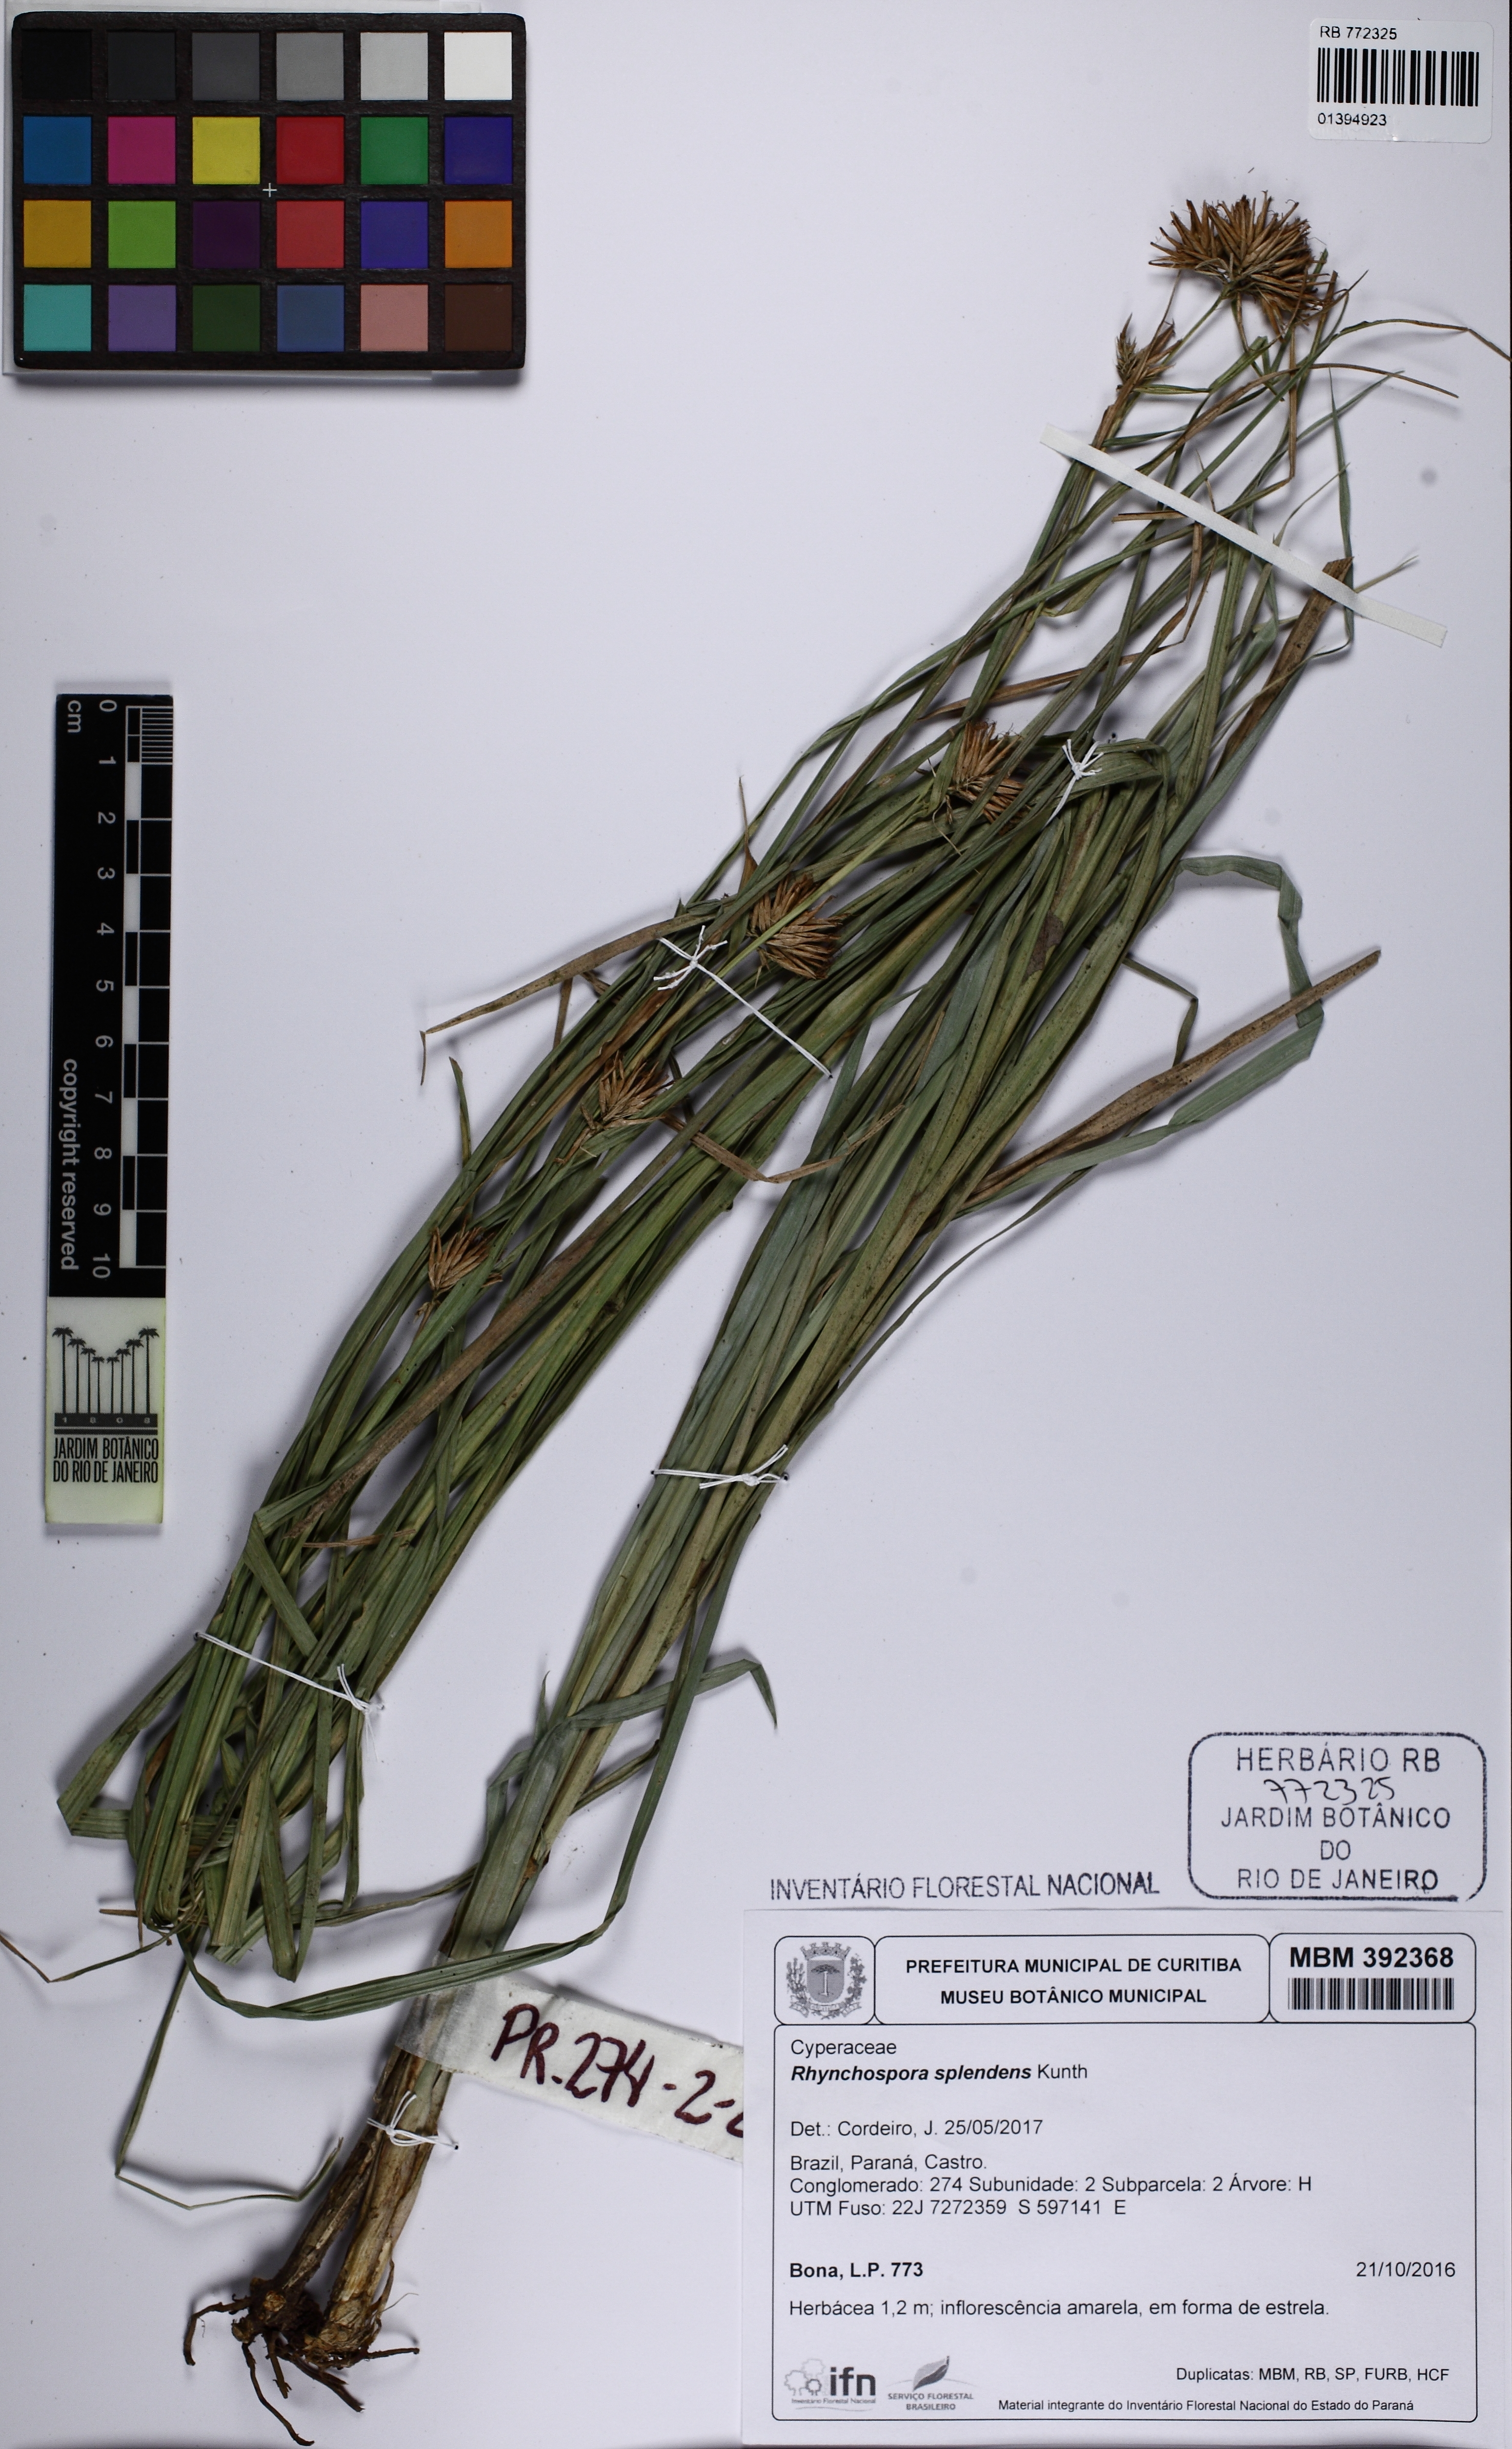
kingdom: Plantae
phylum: Tracheophyta
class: Liliopsida
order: Poales
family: Cyperaceae
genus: Rhynchospora
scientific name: Rhynchospora splendens
